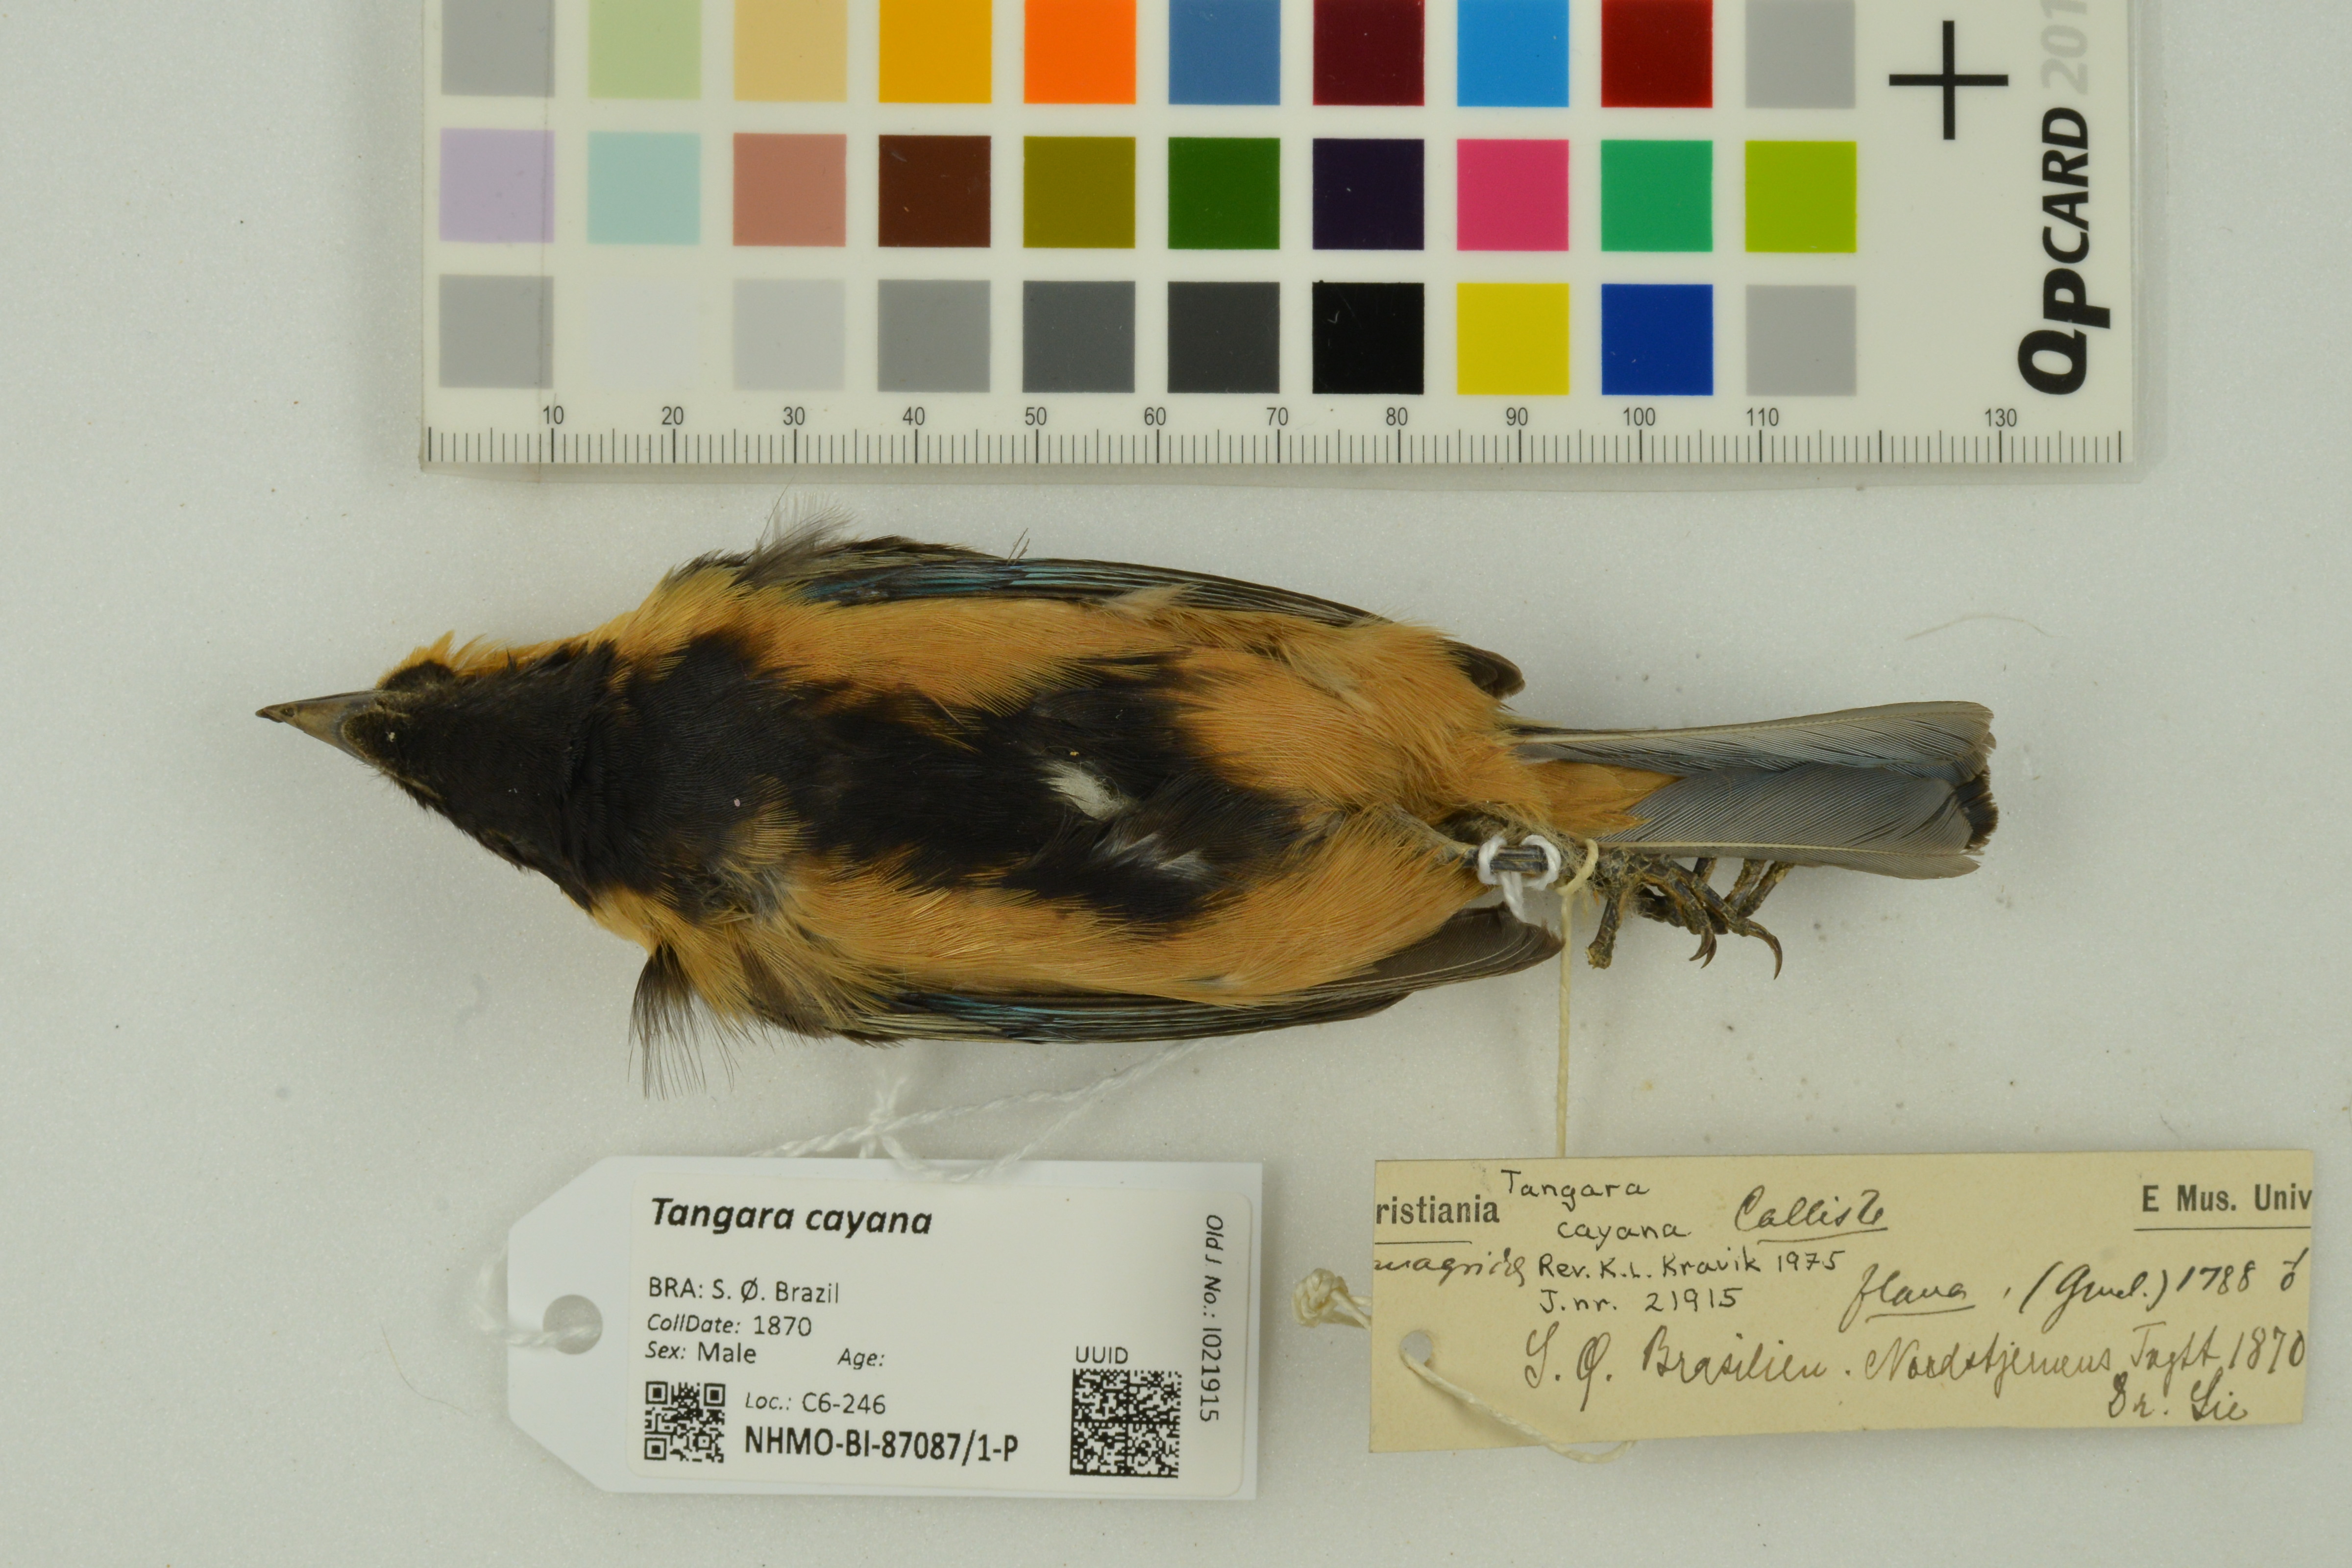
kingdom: Animalia
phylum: Chordata
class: Aves
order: Passeriformes
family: Thraupidae
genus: Stilpnia
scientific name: Stilpnia cayana
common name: Burnished-buff tanager
